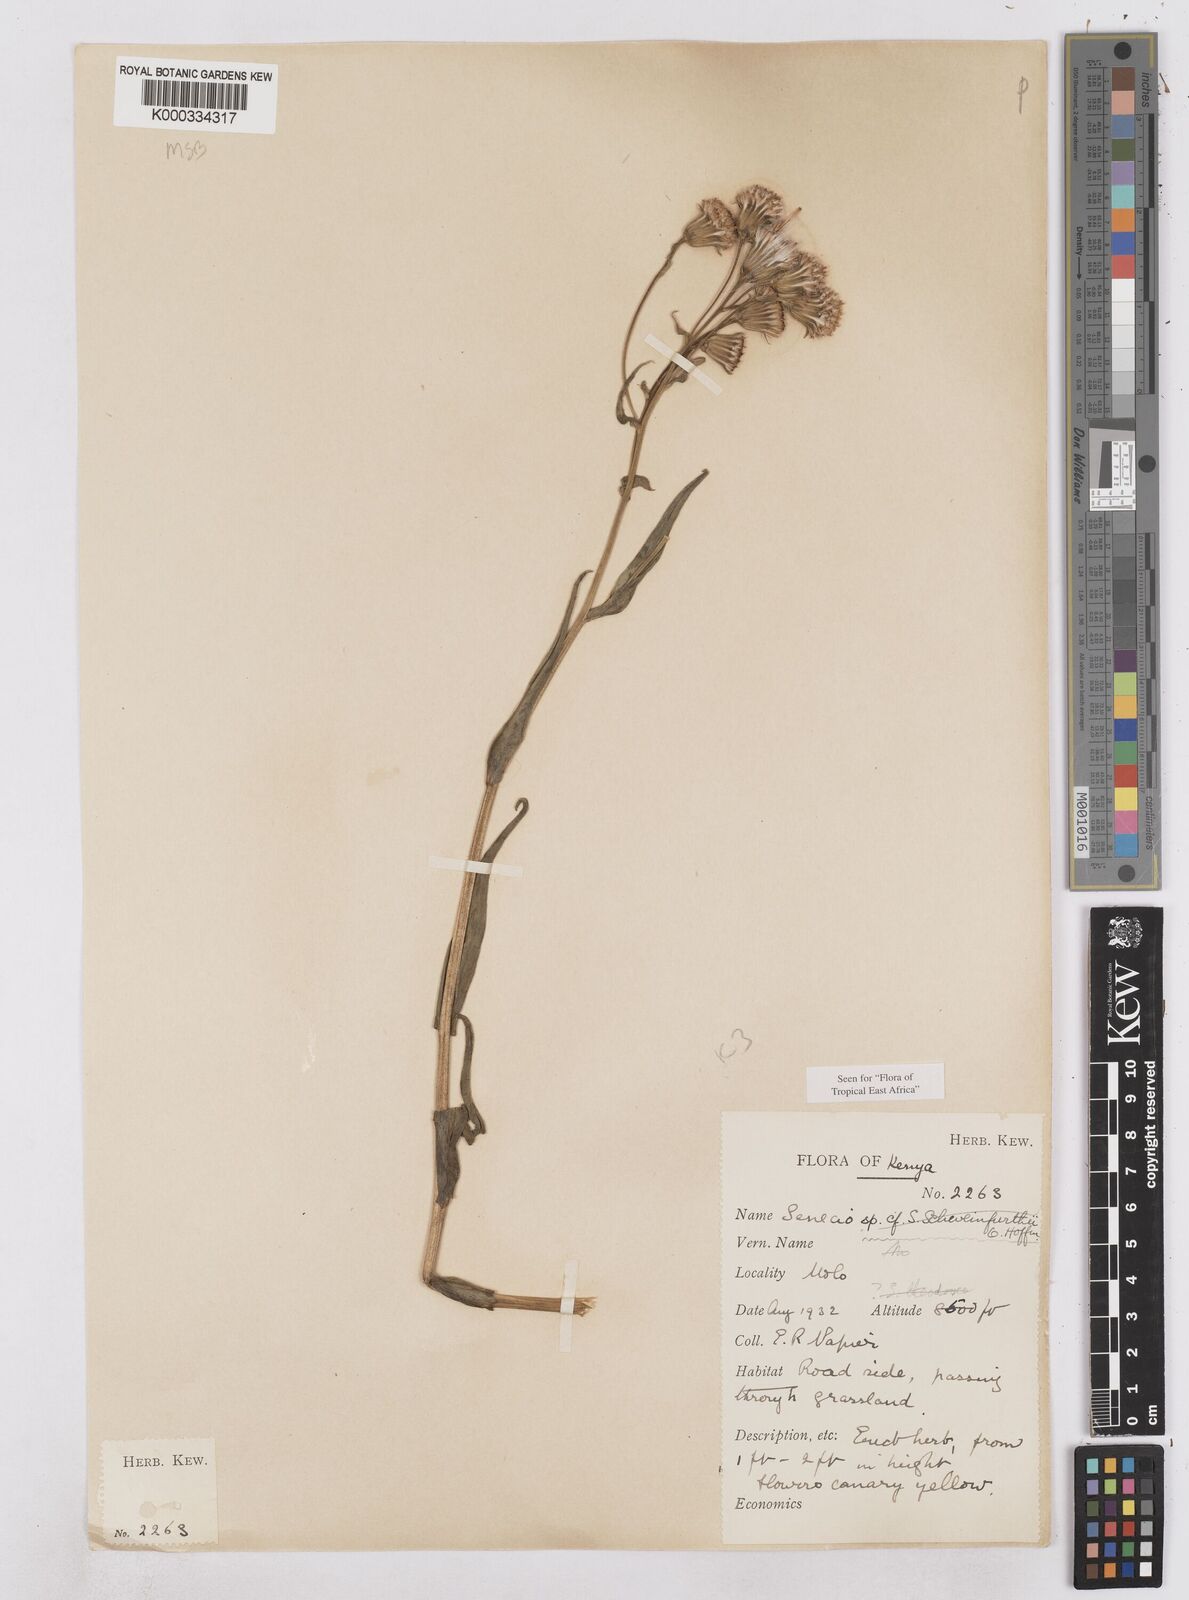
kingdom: Plantae
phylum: Tracheophyta
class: Magnoliopsida
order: Asterales
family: Asteraceae
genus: Senecio
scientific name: Senecio schweinfurthii
